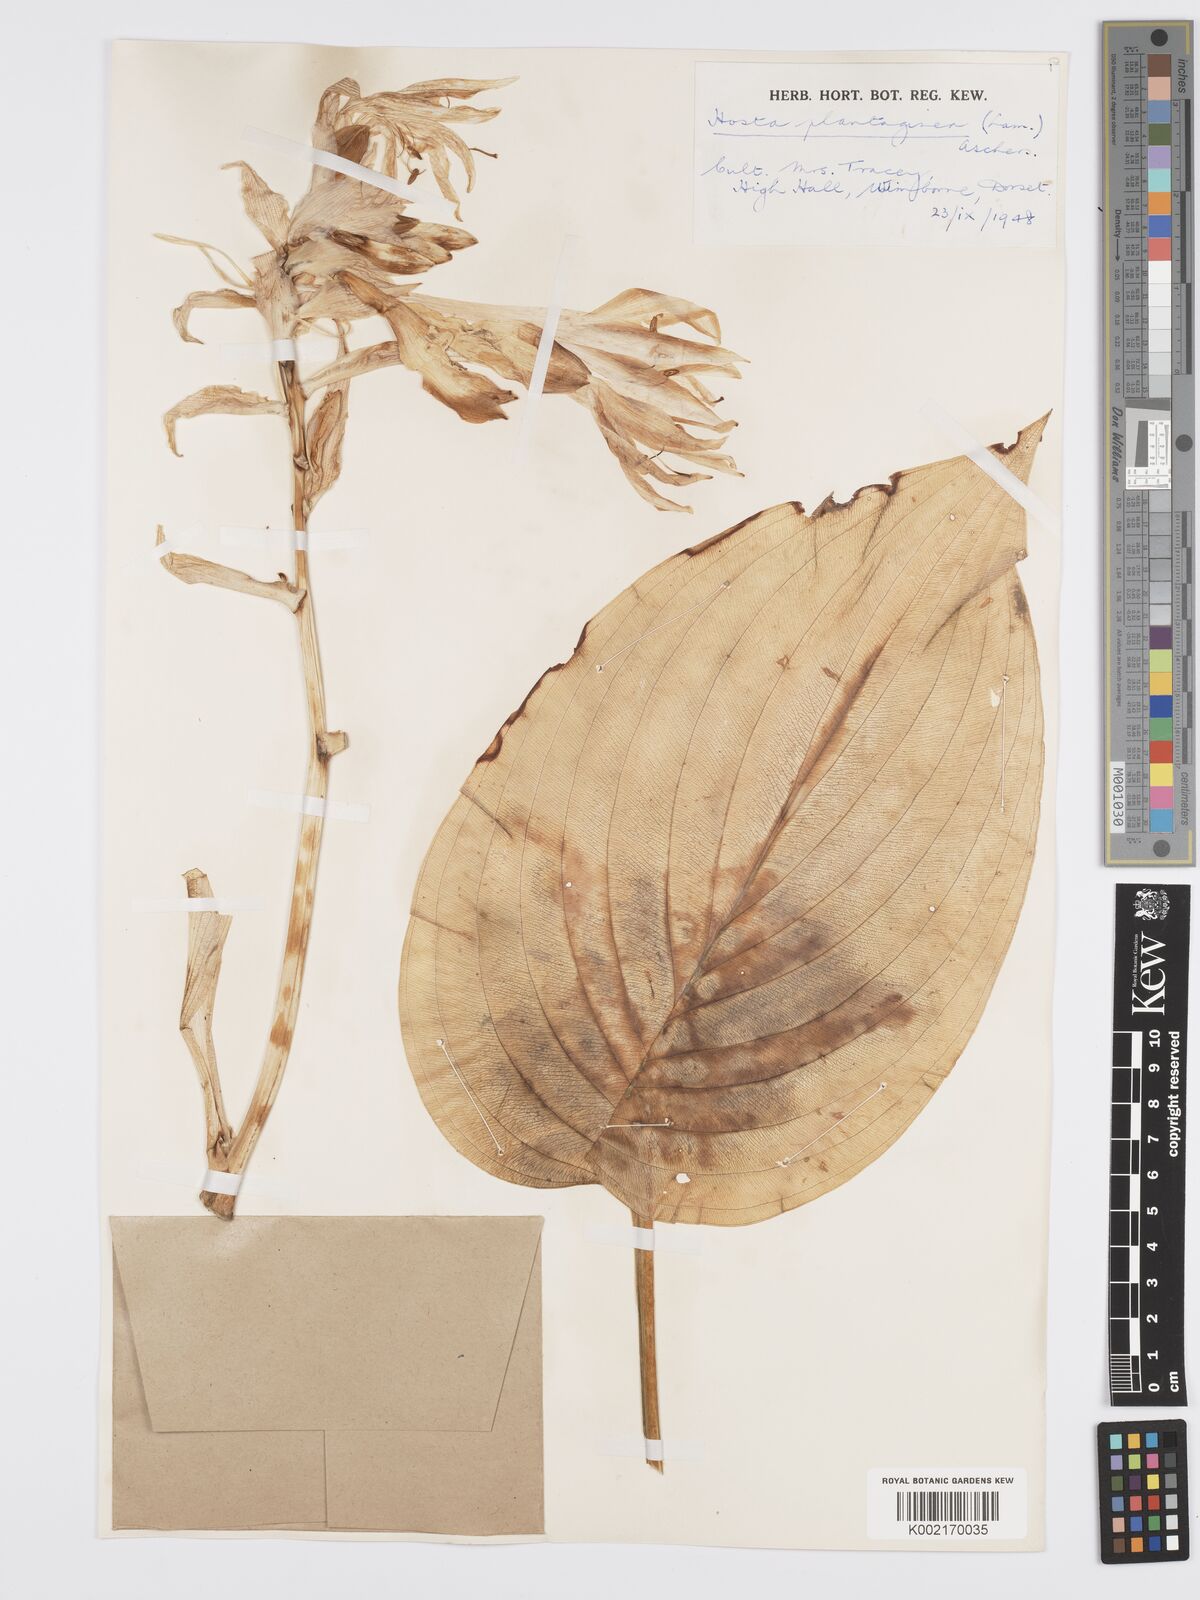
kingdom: Plantae
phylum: Tracheophyta
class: Liliopsida
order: Asparagales
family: Asparagaceae
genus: Hosta
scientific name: Hosta plantaginea
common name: August-lily
